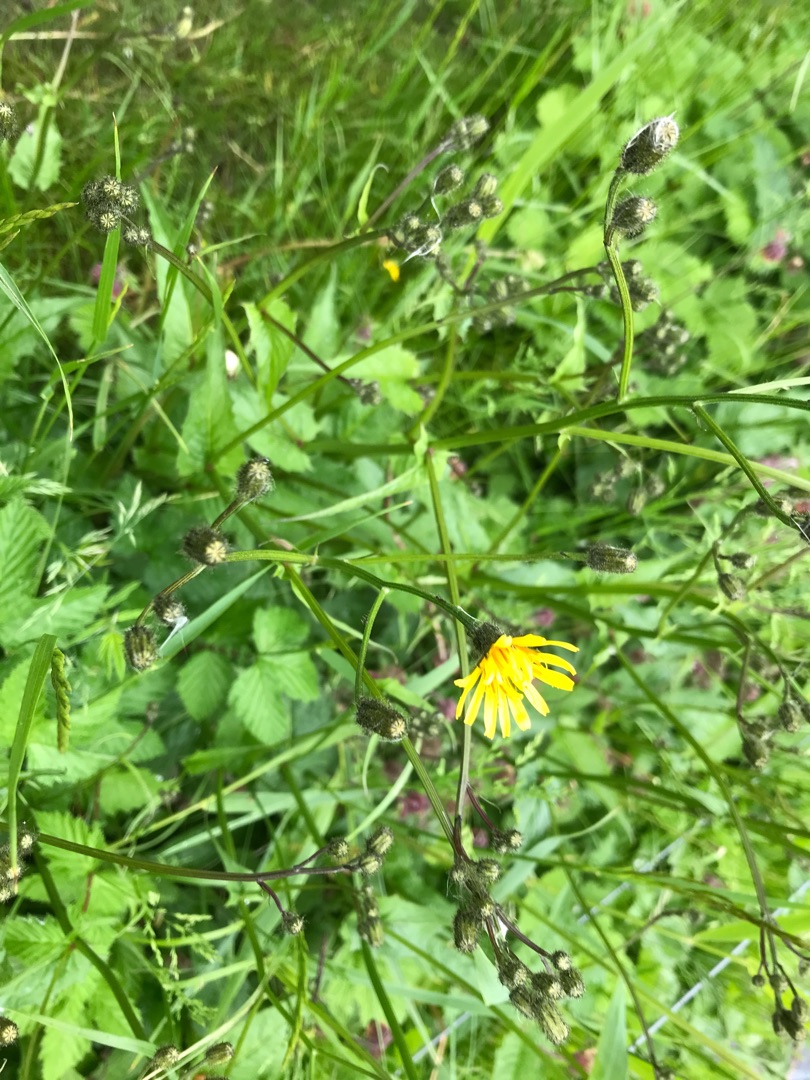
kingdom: Plantae
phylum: Tracheophyta
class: Magnoliopsida
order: Asterales
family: Asteraceae
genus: Crepis
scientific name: Crepis paludosa
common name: Kær-høgeskæg
